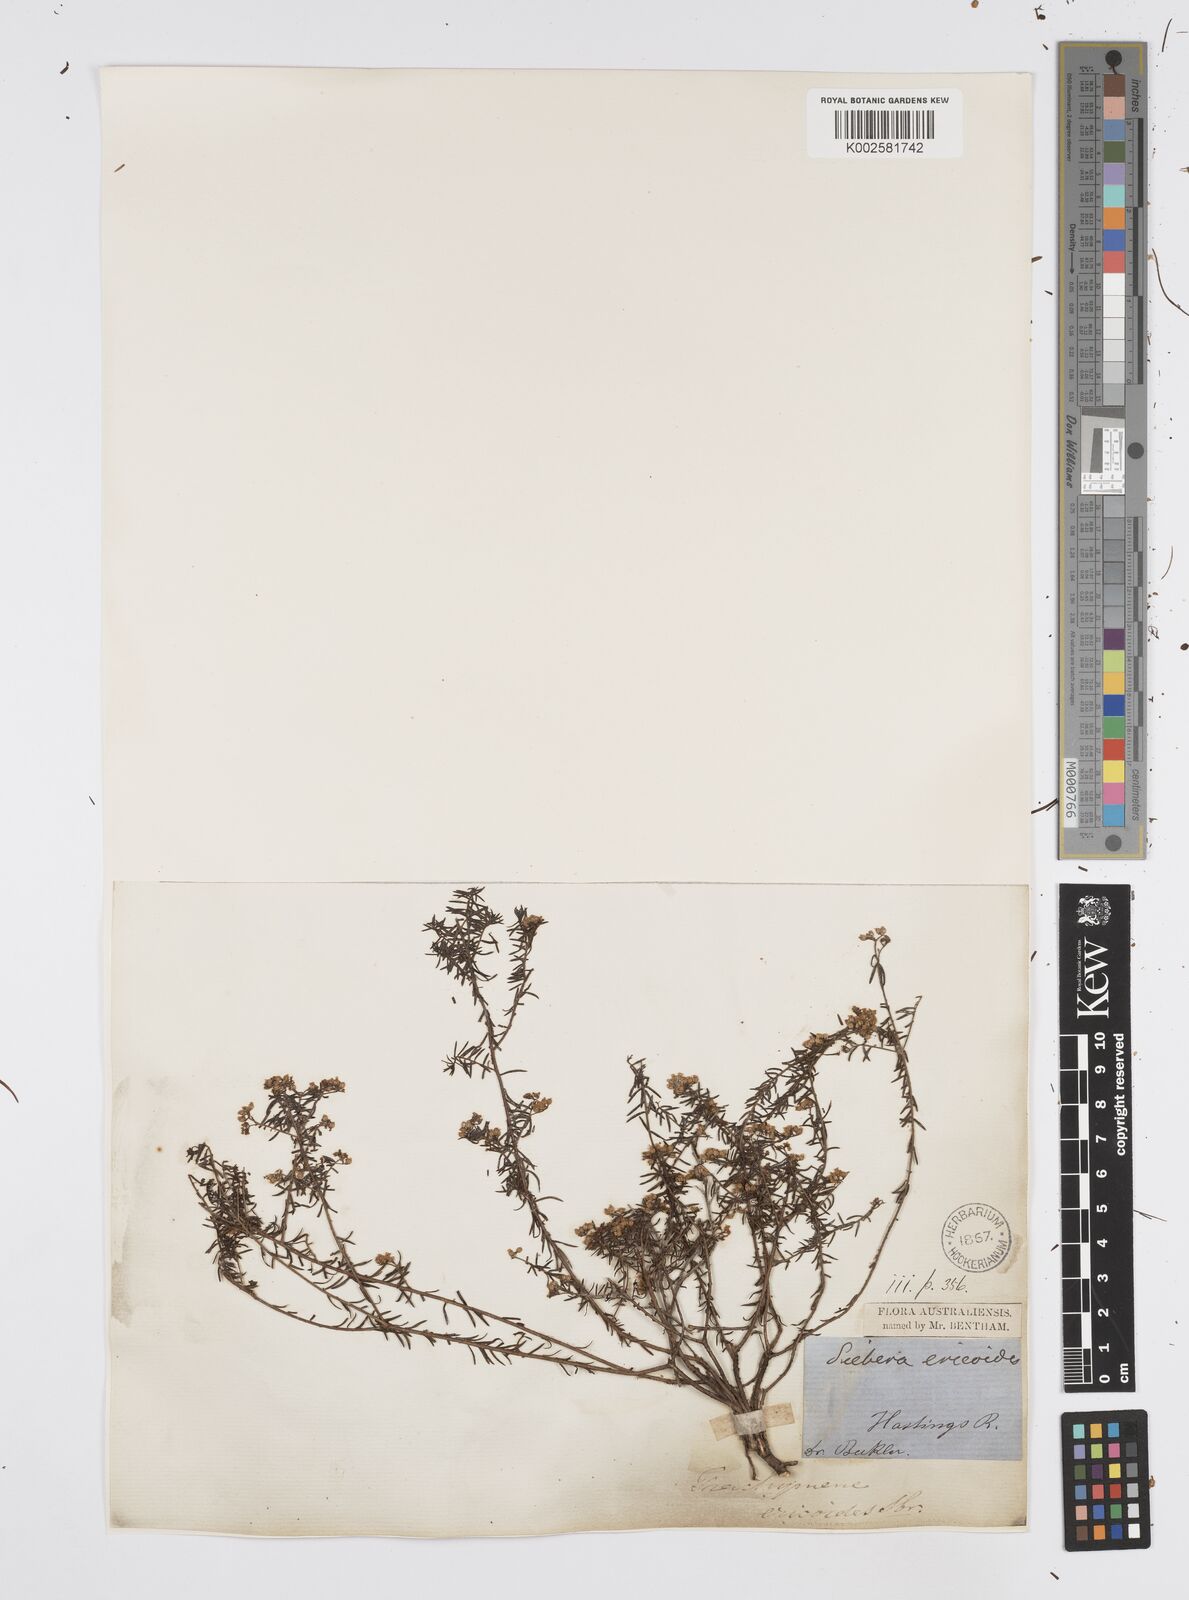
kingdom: Plantae
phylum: Tracheophyta
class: Magnoliopsida
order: Apiales
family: Apiaceae
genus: Platysace
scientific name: Platysace ericoides
